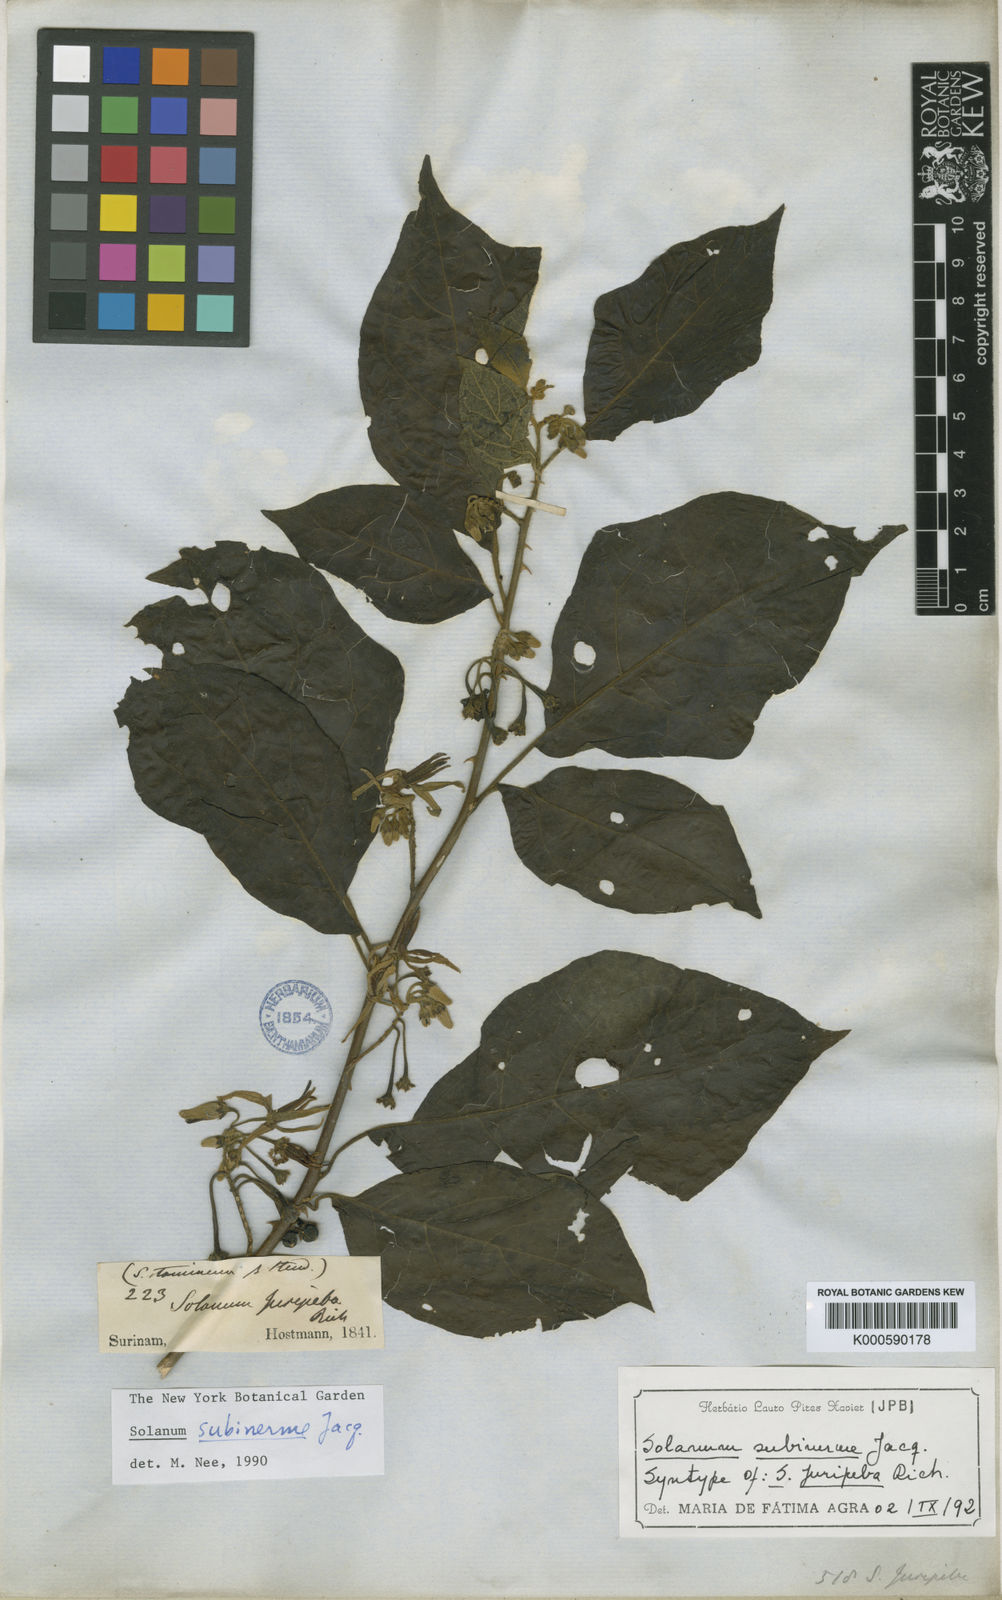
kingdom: Plantae
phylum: Tracheophyta
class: Magnoliopsida
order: Solanales
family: Solanaceae
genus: Solanum
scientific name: Solanum subinerme
